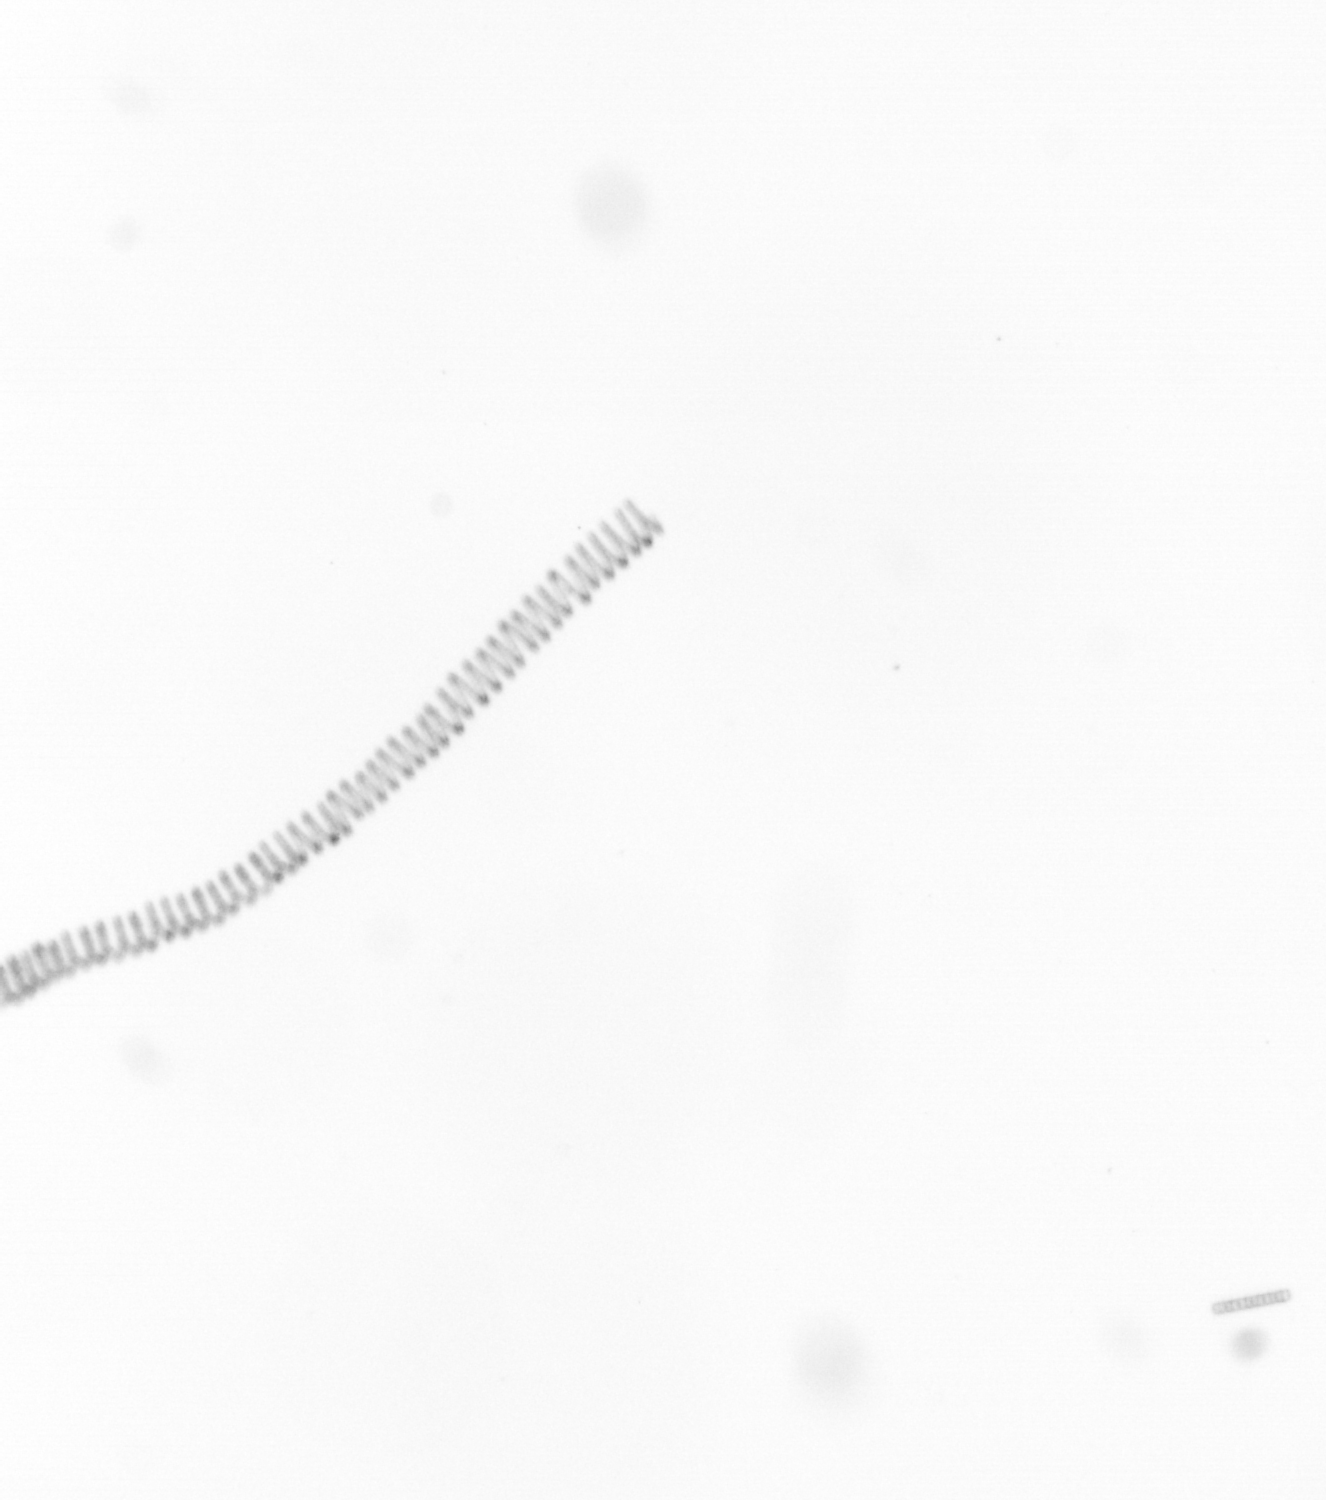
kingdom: Chromista
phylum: Ochrophyta
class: Bacillariophyceae
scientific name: Bacillariophyceae
